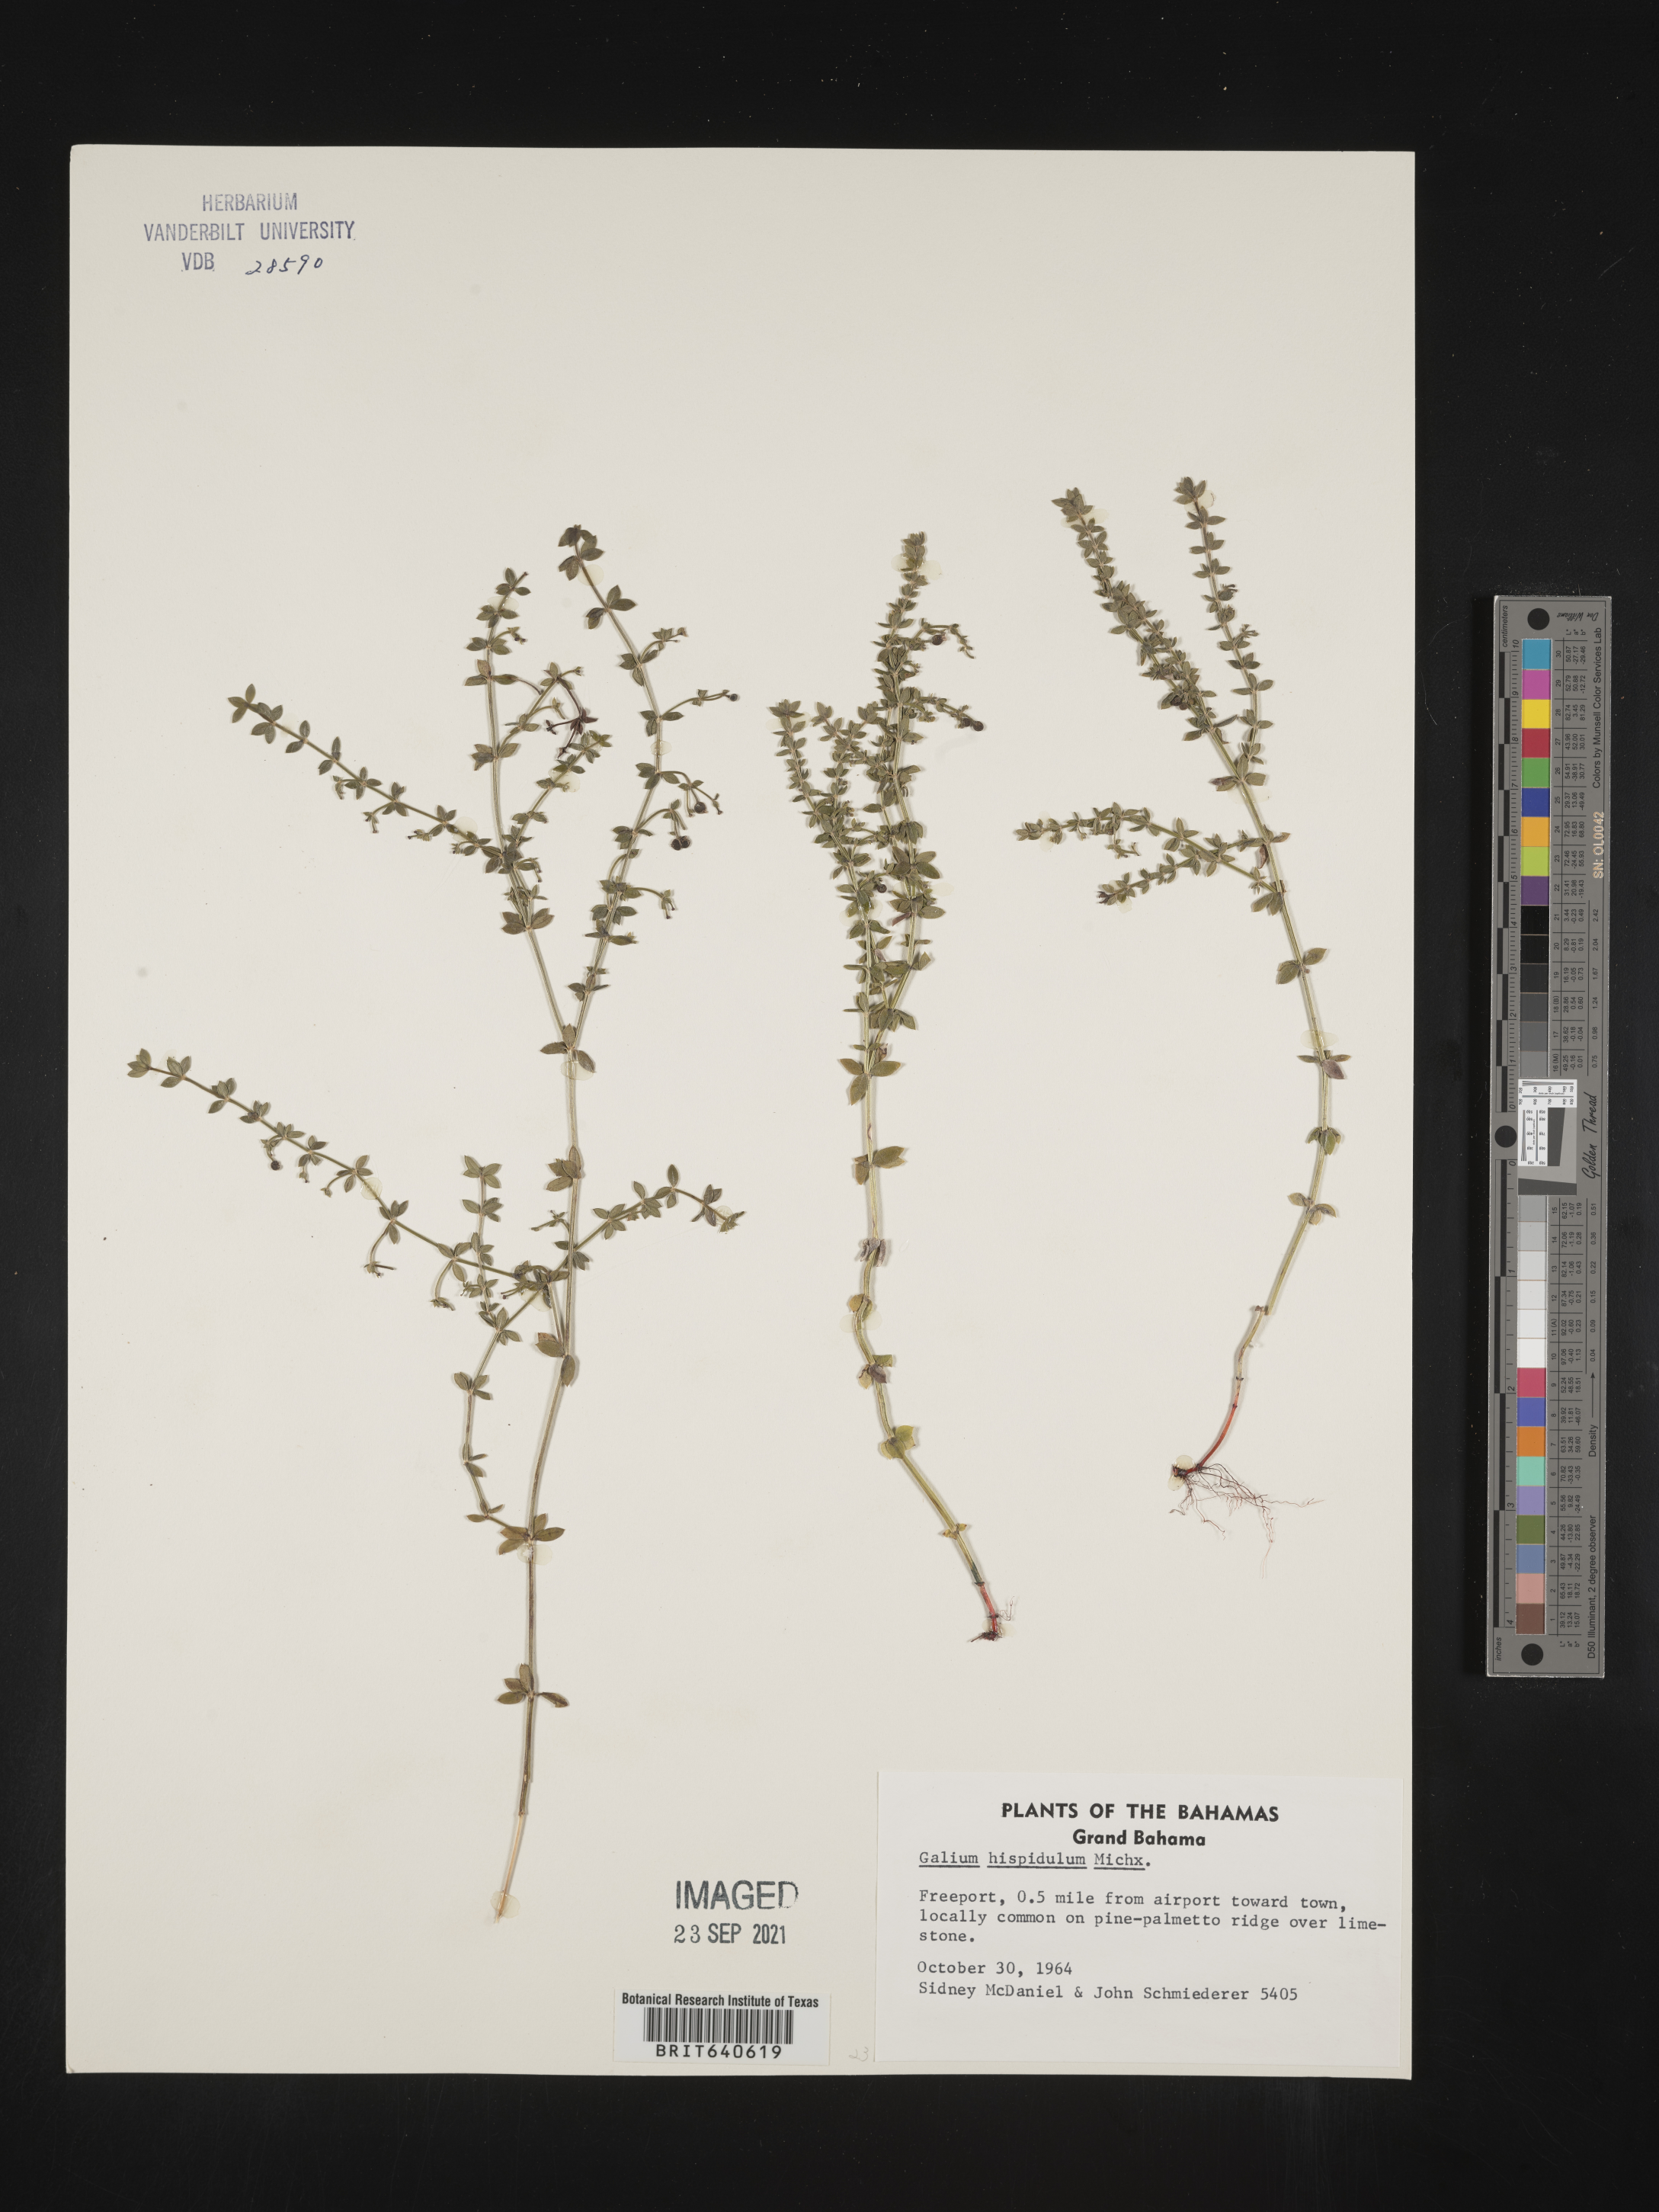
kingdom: Plantae
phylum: Tracheophyta
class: Magnoliopsida
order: Gentianales
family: Rubiaceae
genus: Galium
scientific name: Galium
